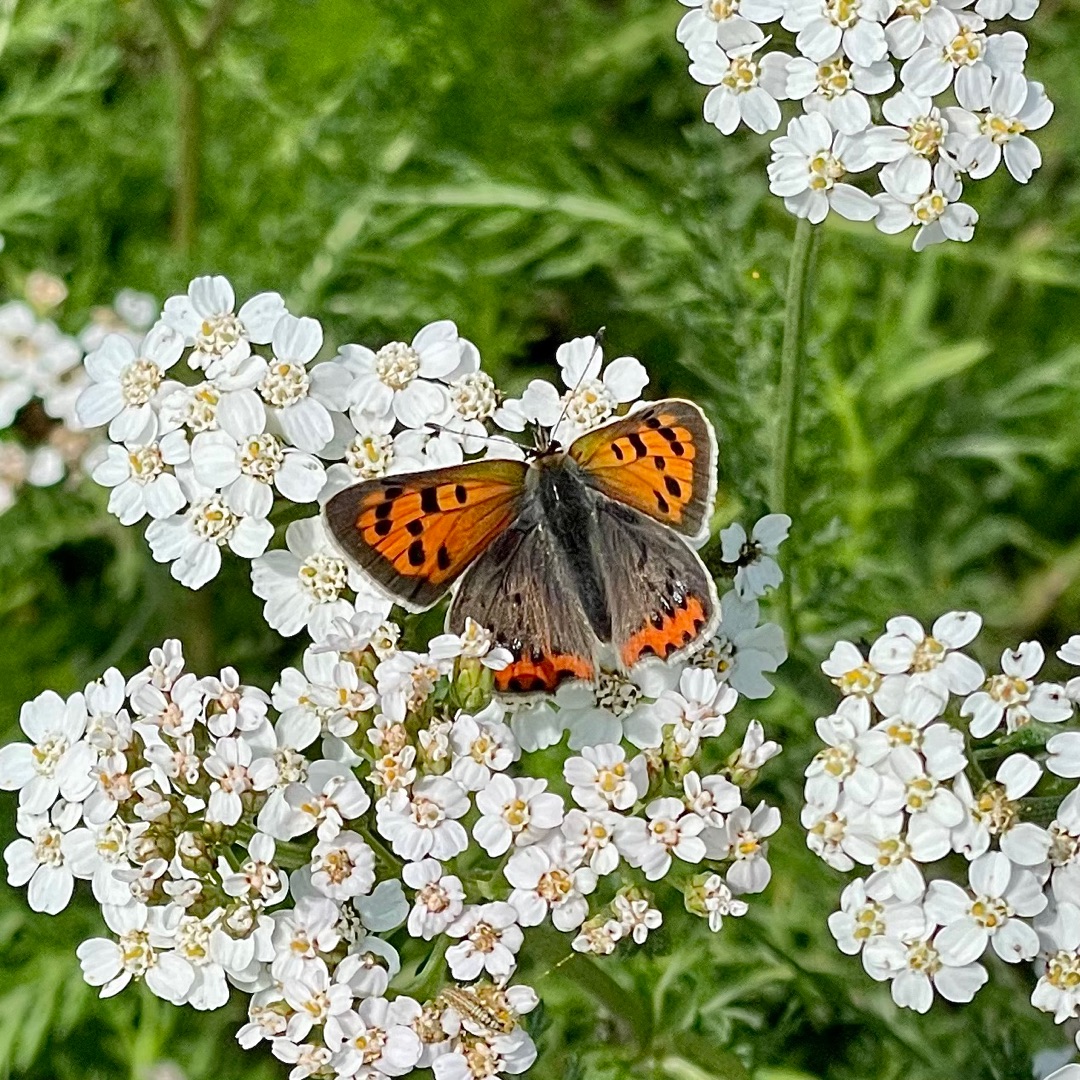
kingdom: Animalia
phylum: Arthropoda
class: Insecta
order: Lepidoptera
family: Lycaenidae
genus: Lycaena
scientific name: Lycaena phlaeas
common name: Lille ildfugl
